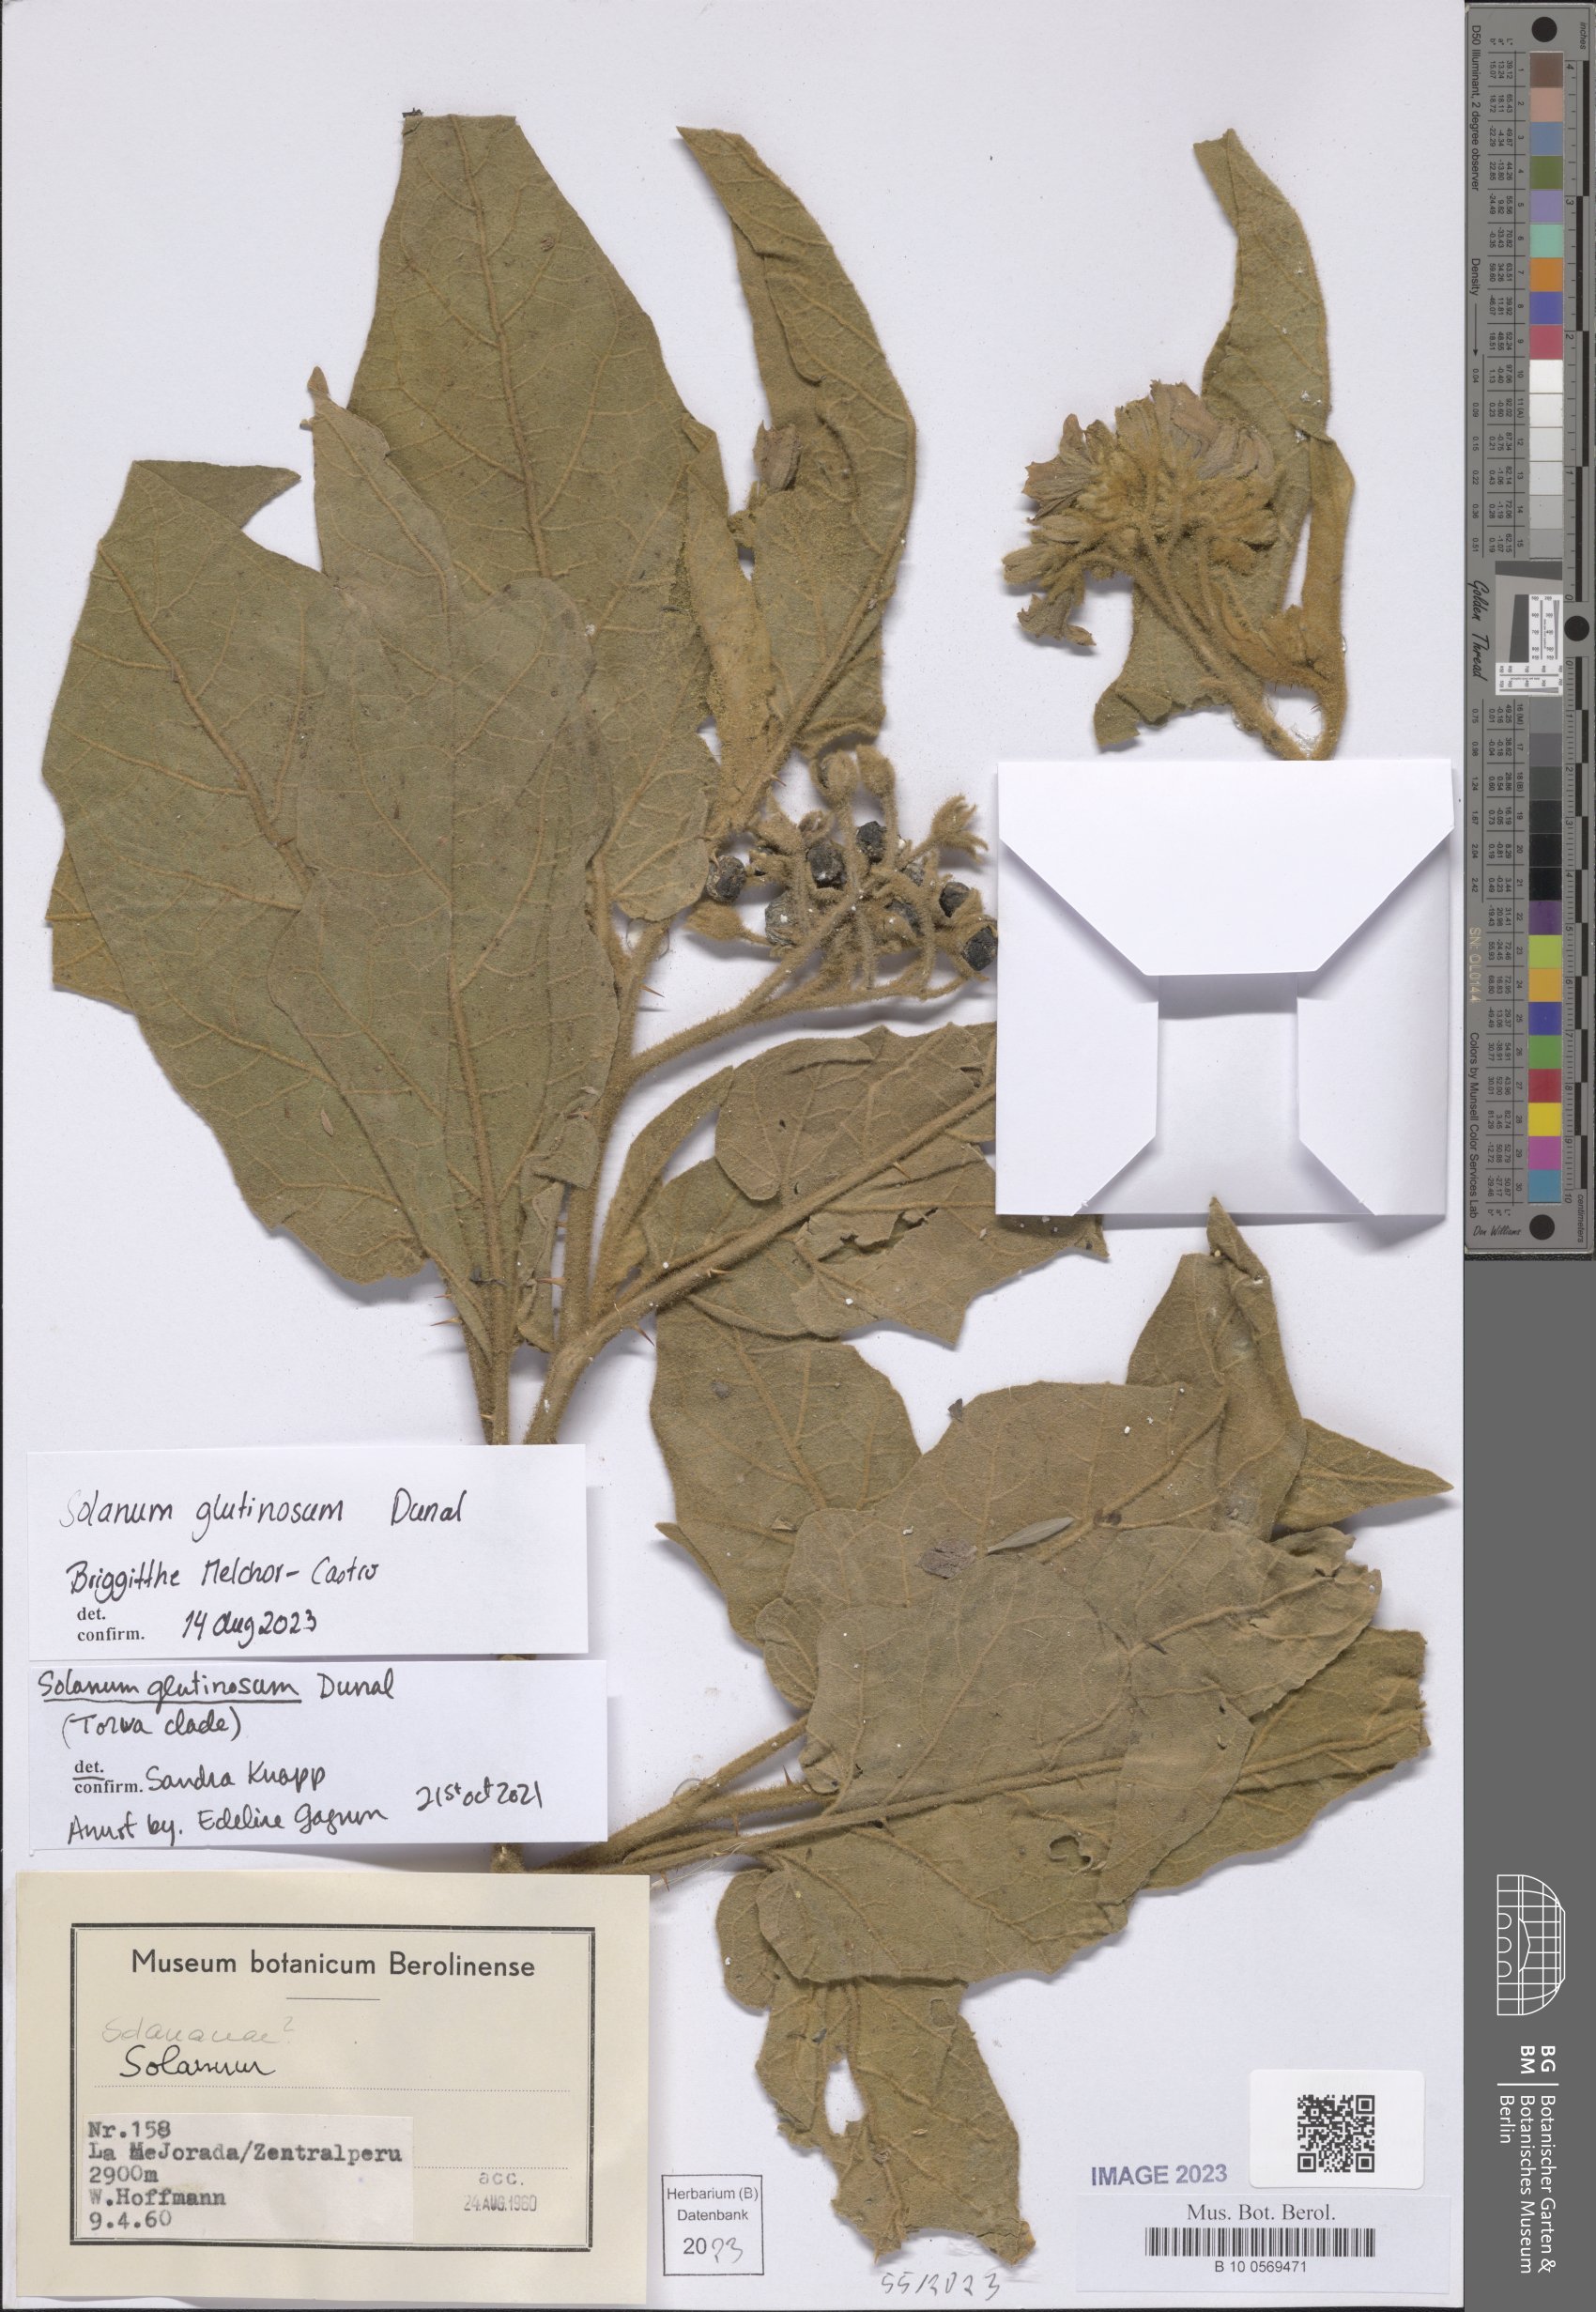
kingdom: Plantae
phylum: Tracheophyta
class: Magnoliopsida
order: Solanales
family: Solanaceae
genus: Solanum
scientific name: Solanum glutinosum
